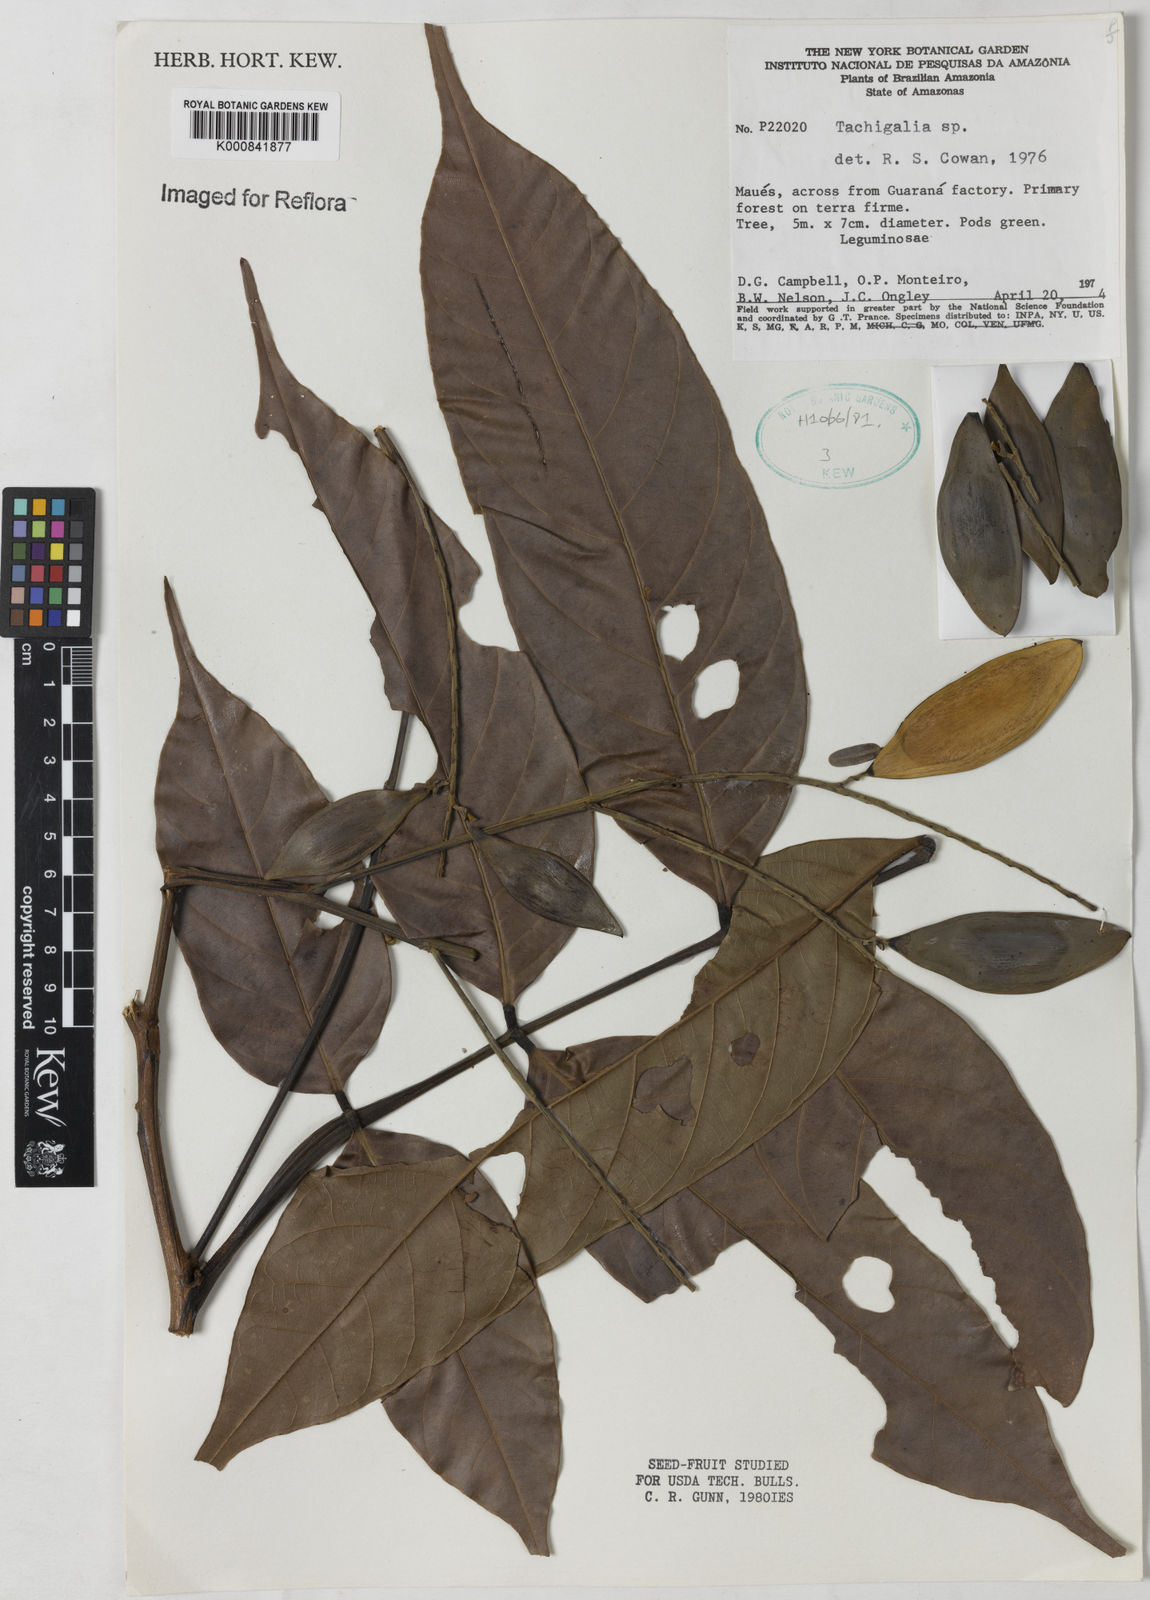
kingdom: Plantae
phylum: Tracheophyta
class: Magnoliopsida
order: Fabales
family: Fabaceae
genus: Tachigali
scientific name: Tachigali
